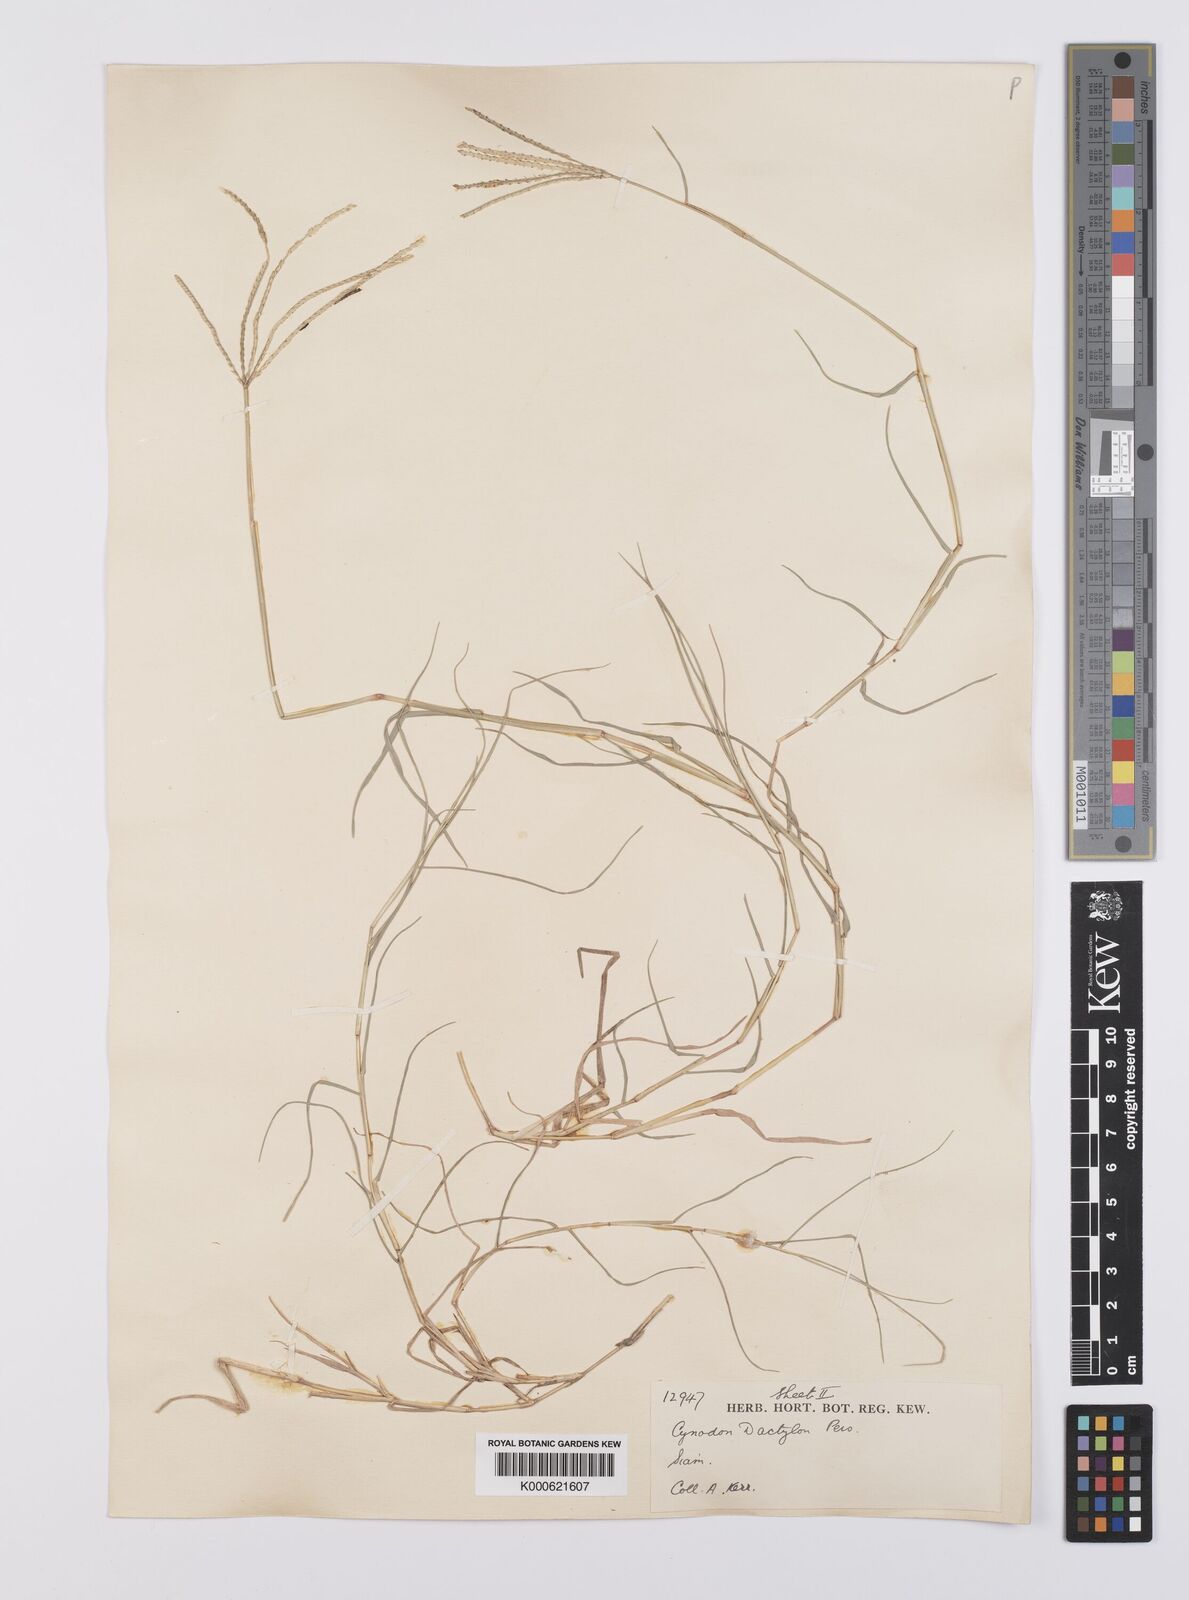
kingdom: Plantae
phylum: Tracheophyta
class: Liliopsida
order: Poales
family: Poaceae
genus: Cynodon
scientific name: Cynodon dactylon
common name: Bermuda grass
